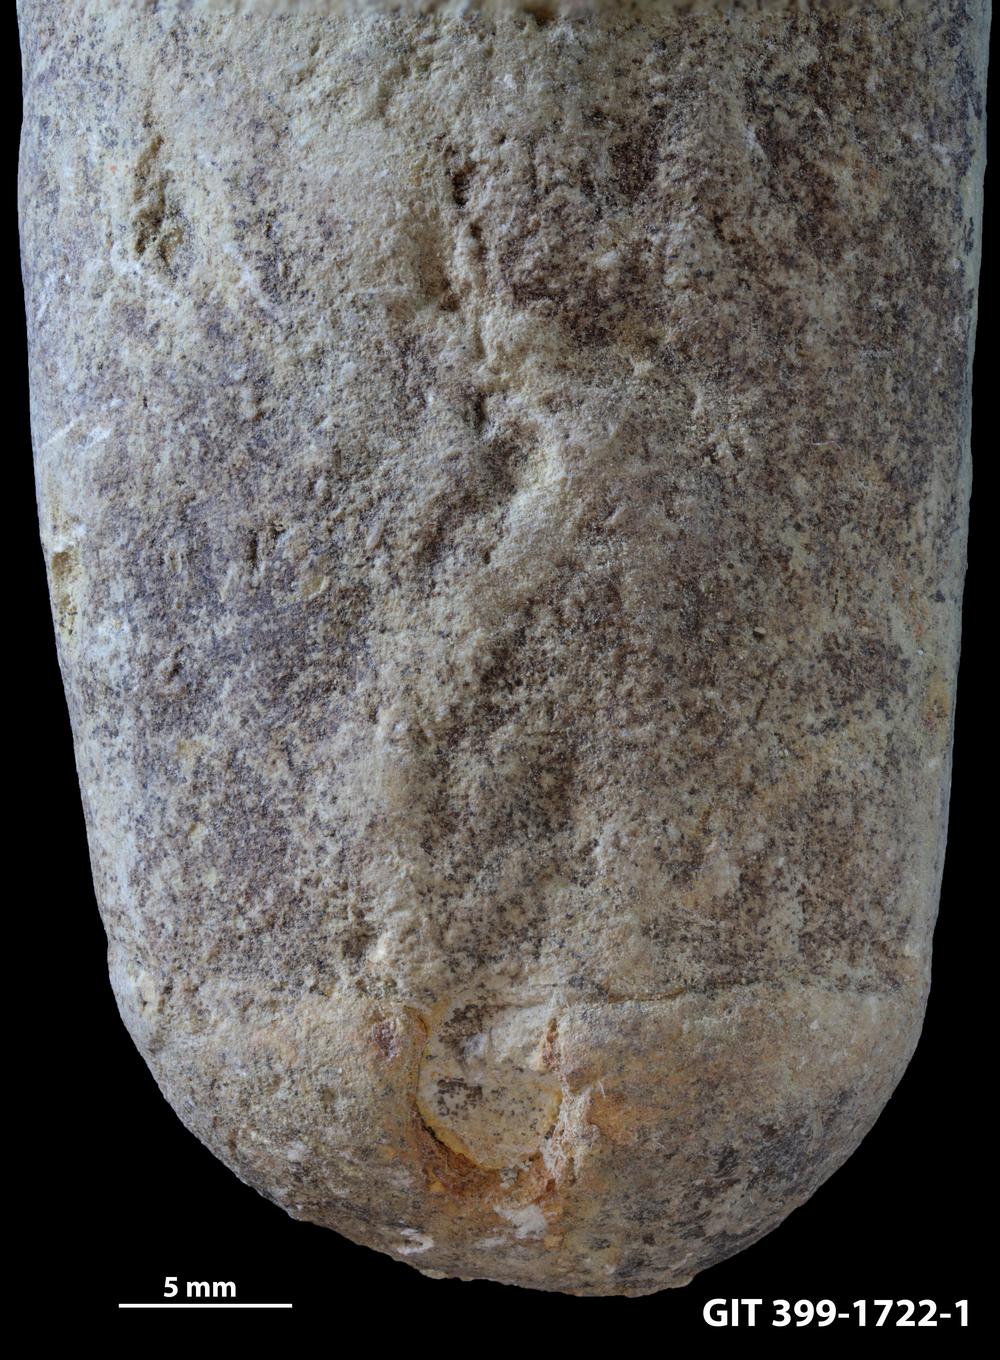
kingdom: Animalia
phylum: Mollusca
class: Gastropoda
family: Subulitidae
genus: Subulites
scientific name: Subulites amphora
